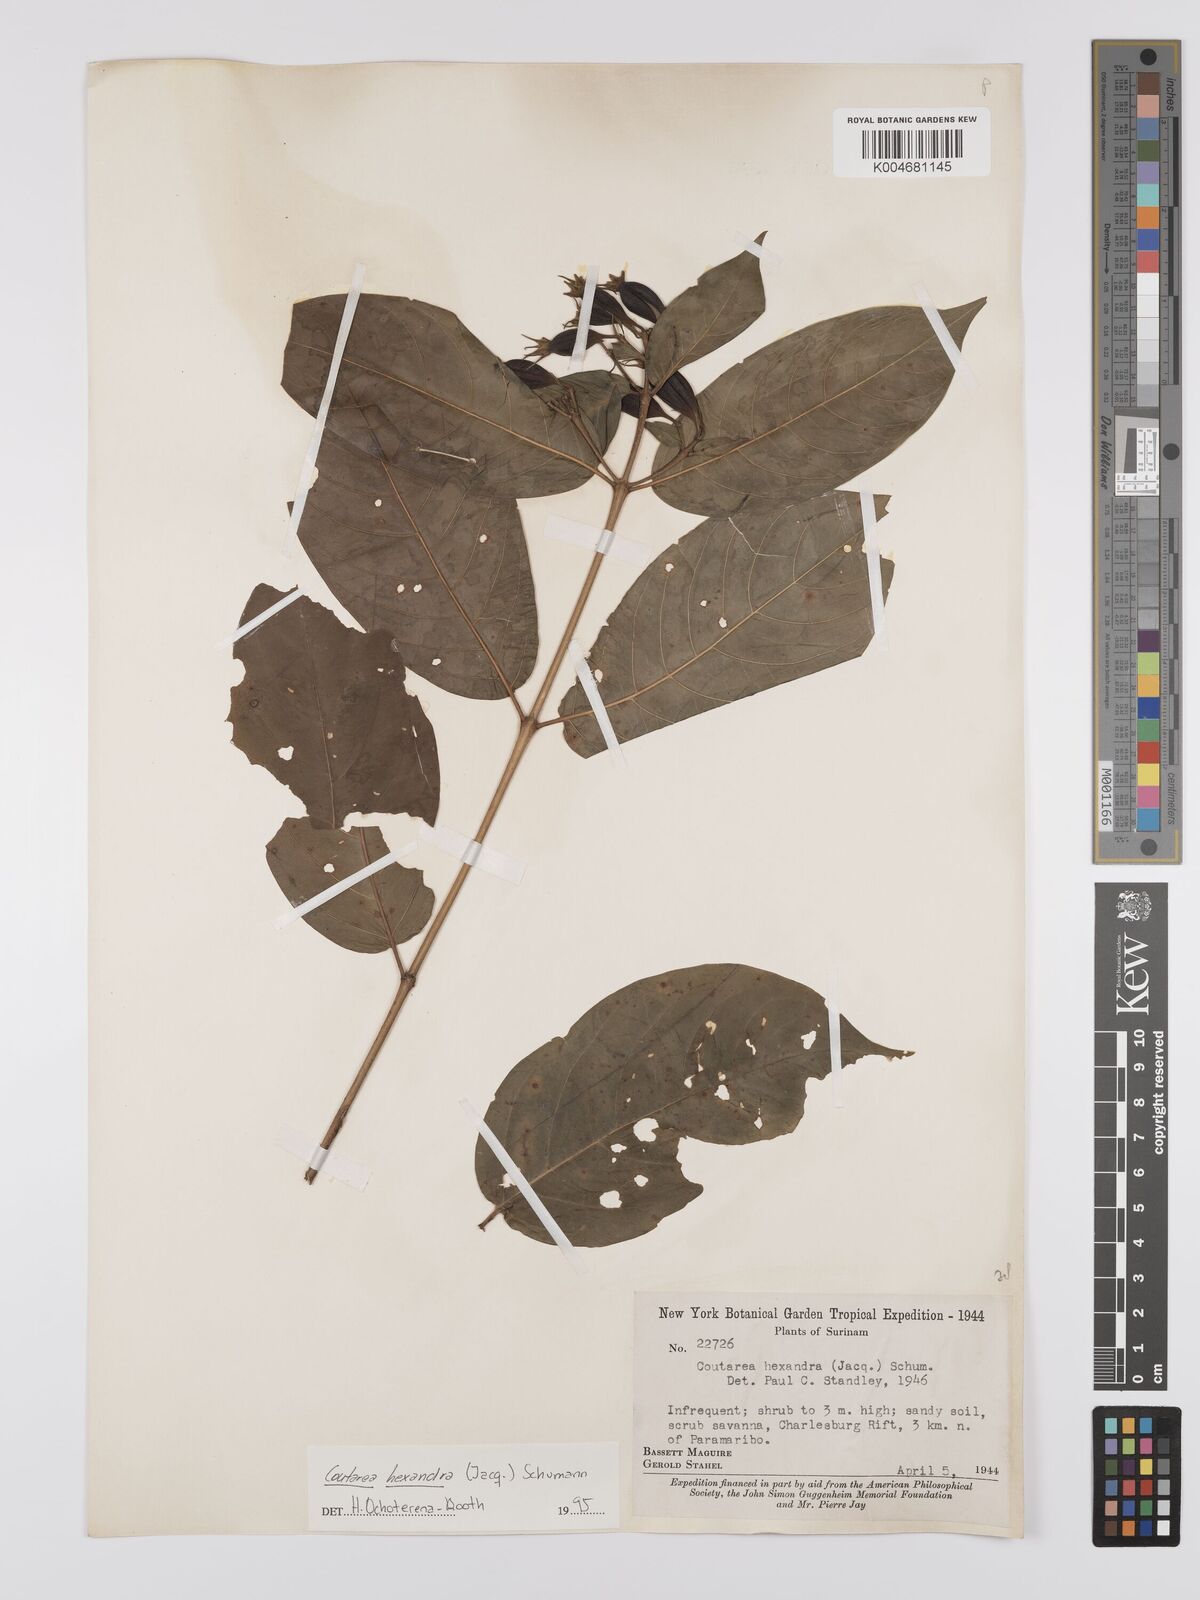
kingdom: Plantae
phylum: Tracheophyta
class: Magnoliopsida
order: Gentianales
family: Rubiaceae
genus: Coutarea
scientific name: Coutarea hexandra
